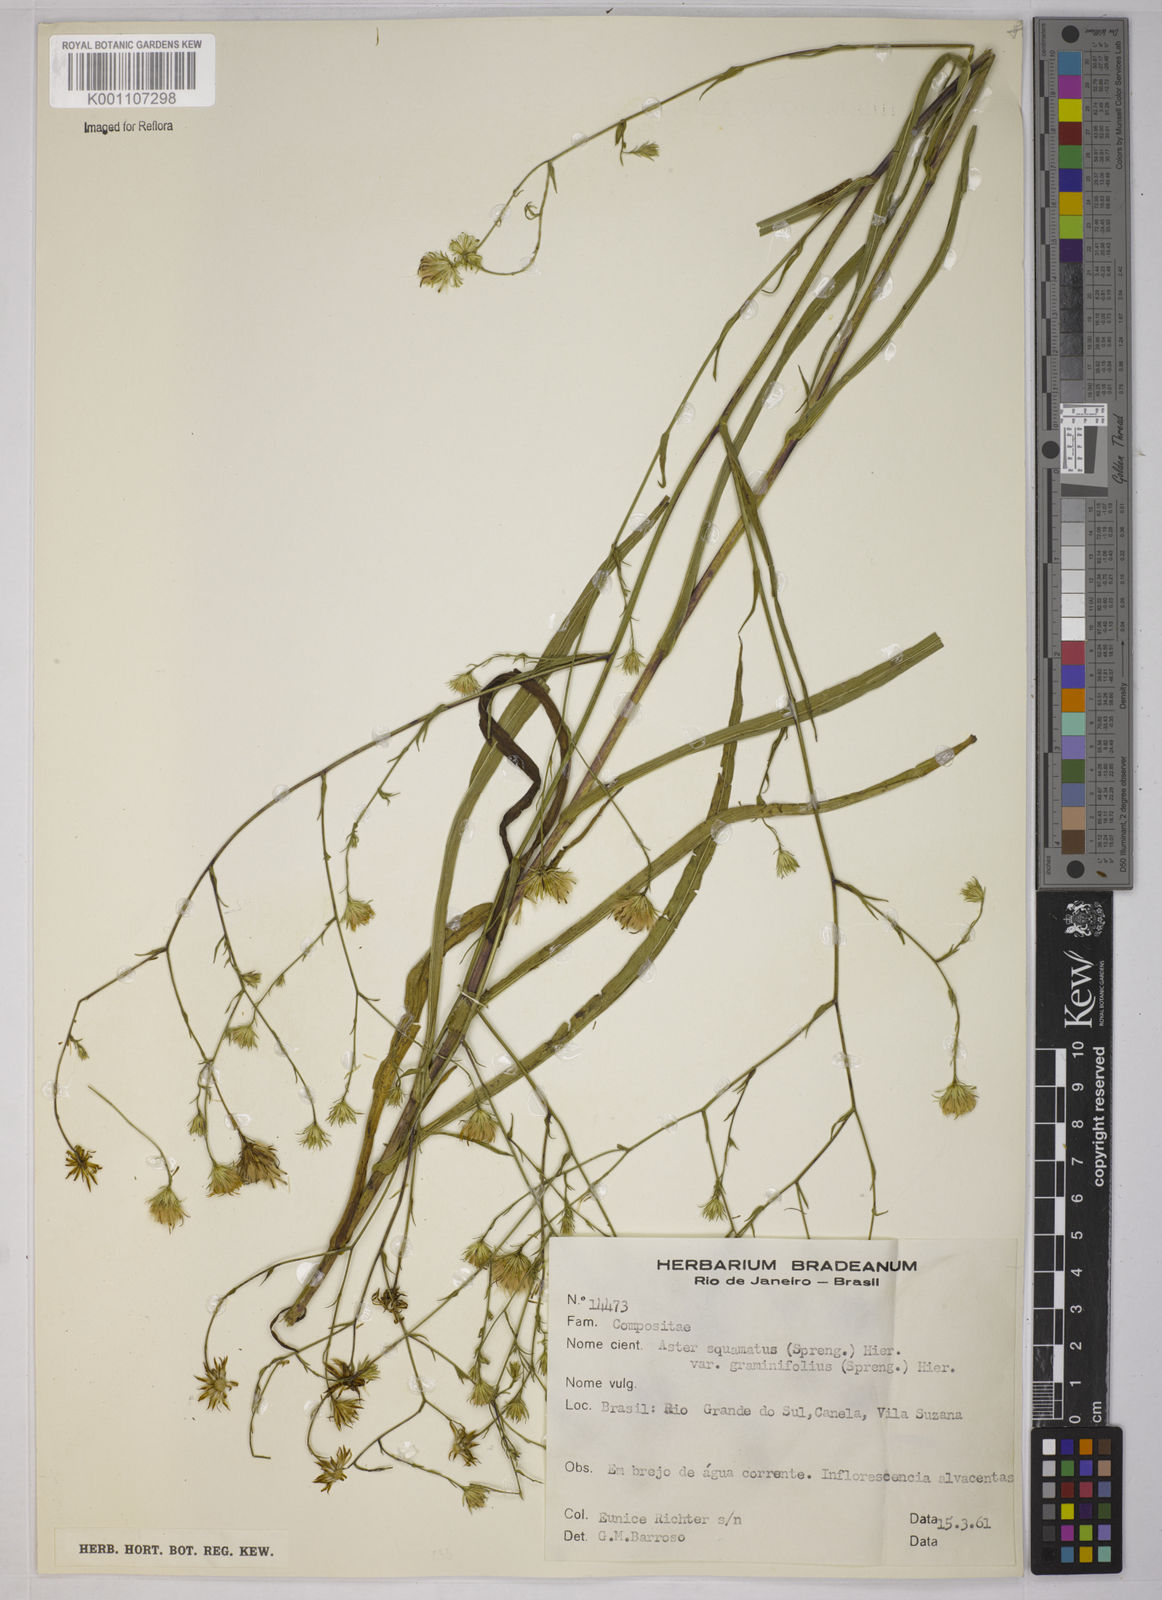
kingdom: Plantae
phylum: Tracheophyta
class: Magnoliopsida
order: Asterales
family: Asteraceae
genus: Symphyotrichum
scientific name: Symphyotrichum
